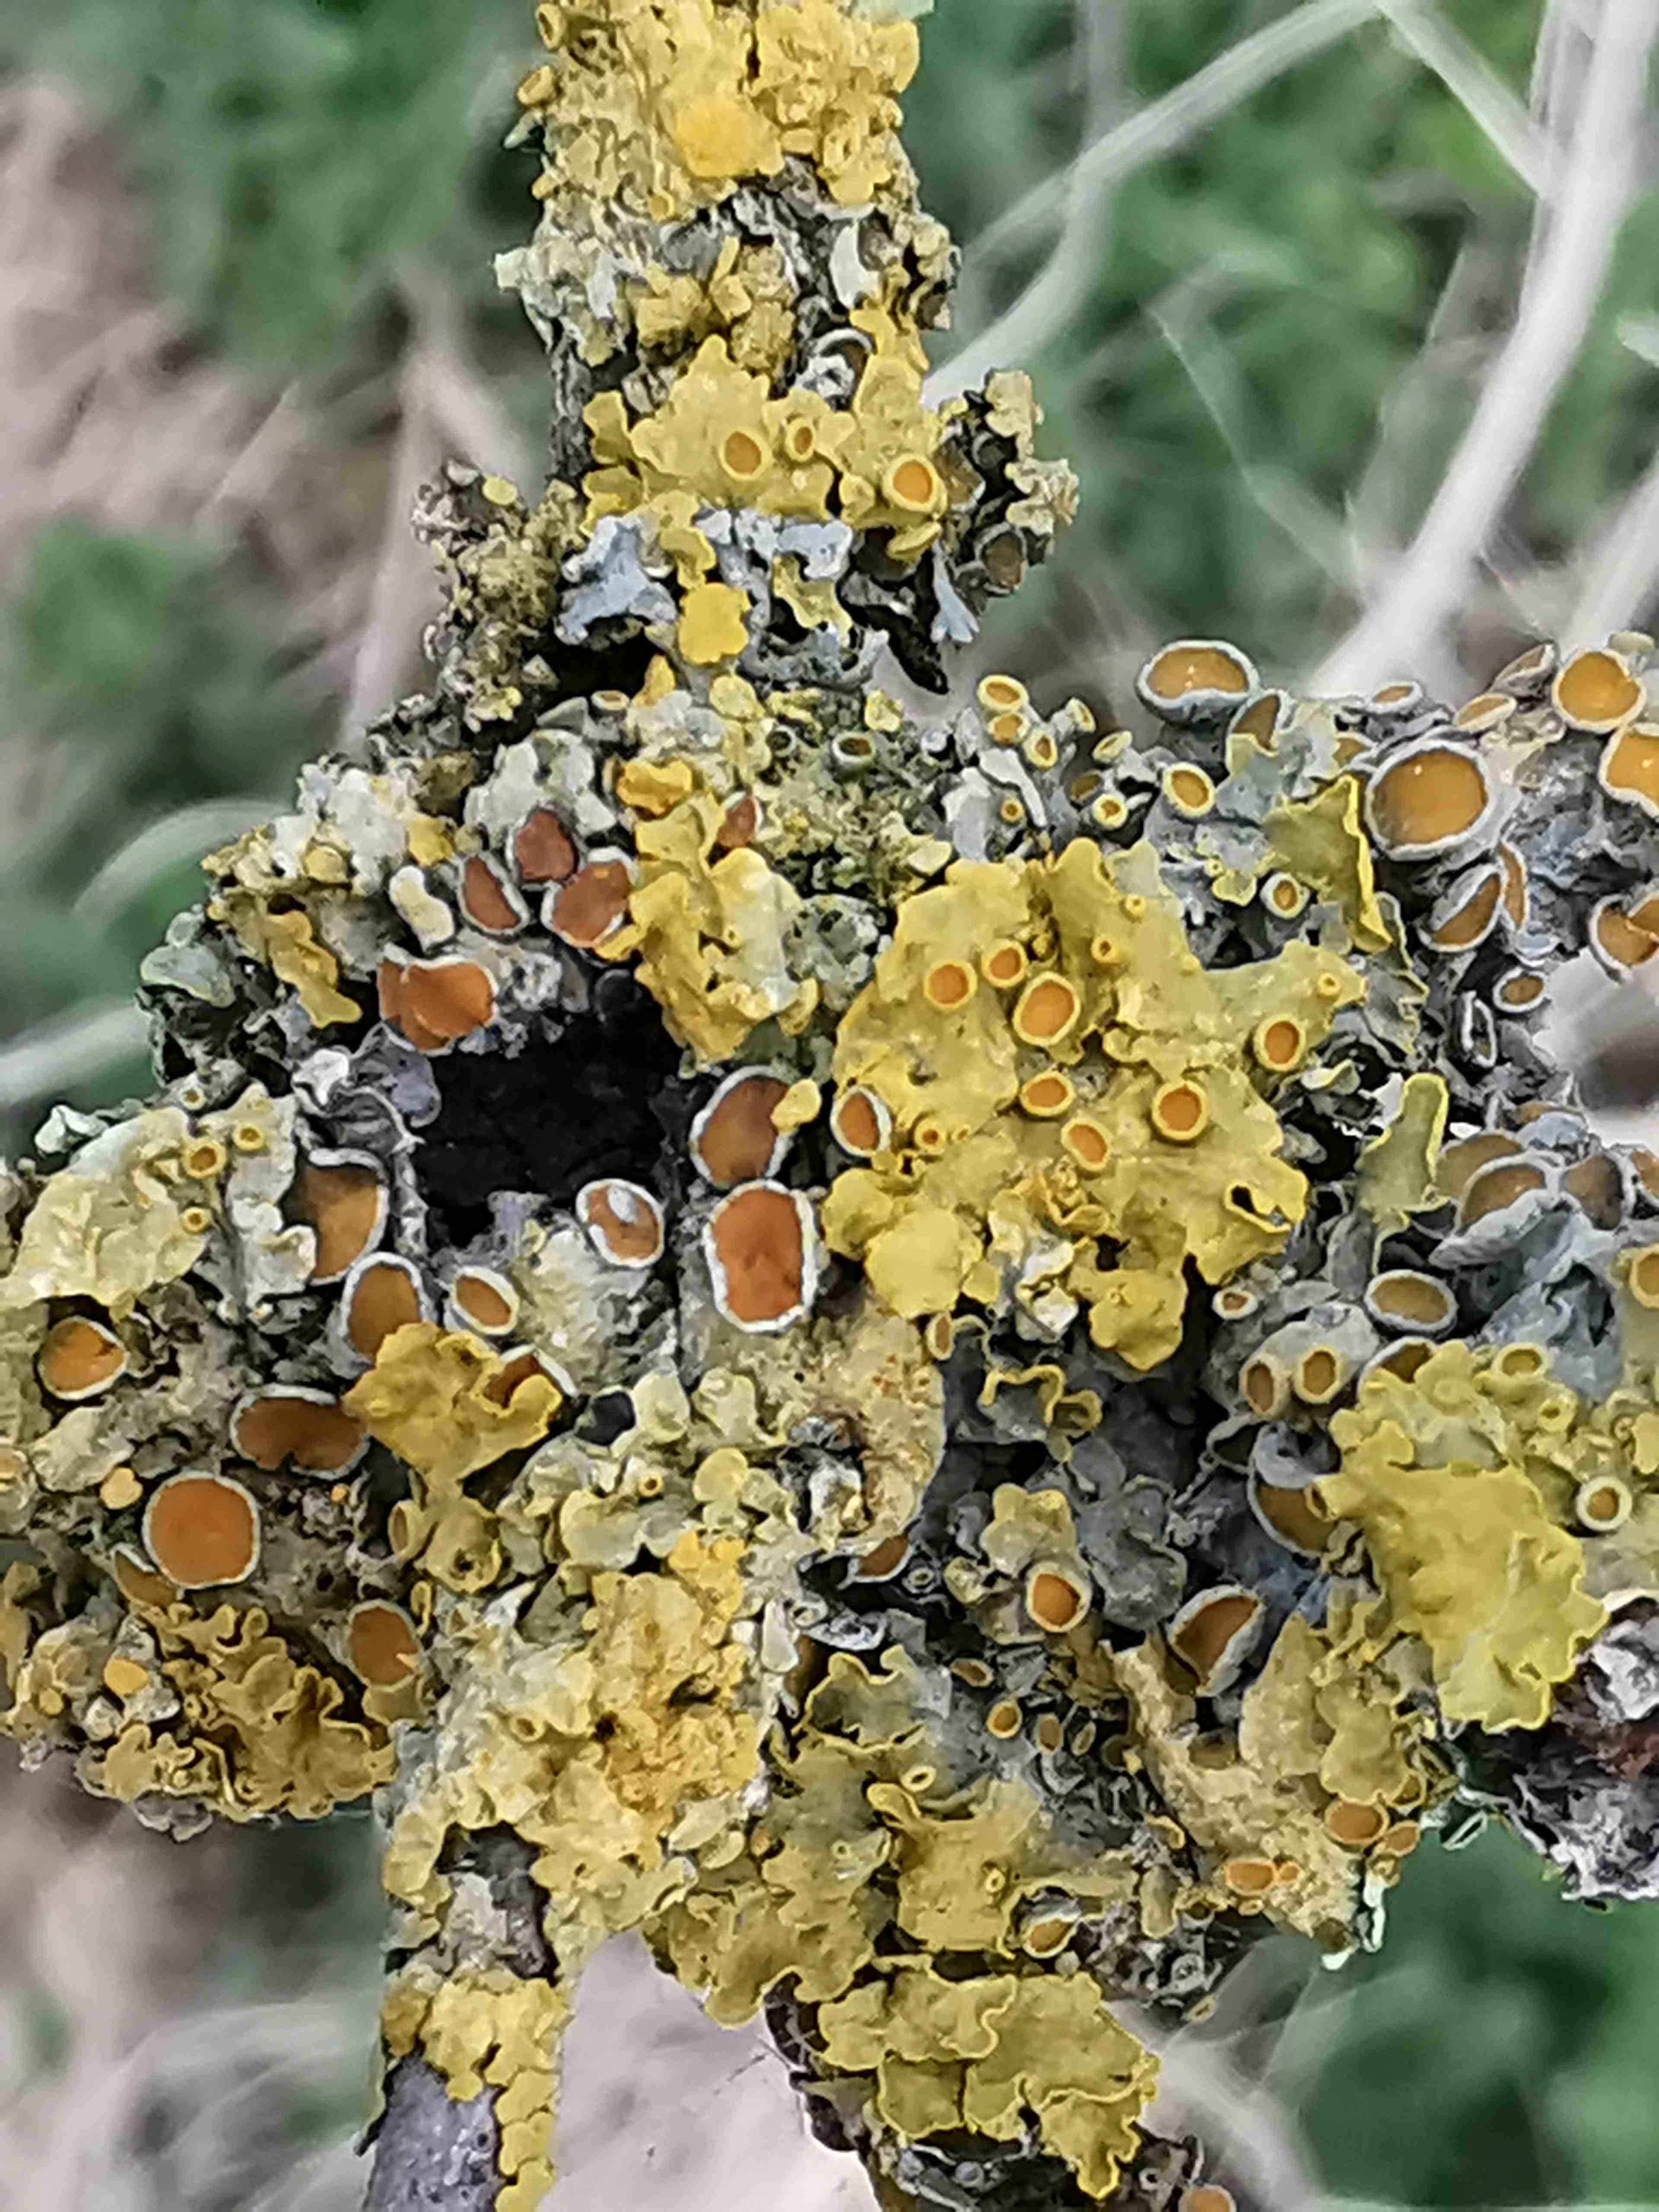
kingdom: Fungi
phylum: Ascomycota
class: Lecanoromycetes
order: Teloschistales
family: Teloschistaceae
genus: Xanthoria
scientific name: Xanthoria parietina
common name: almindelig væggelav
